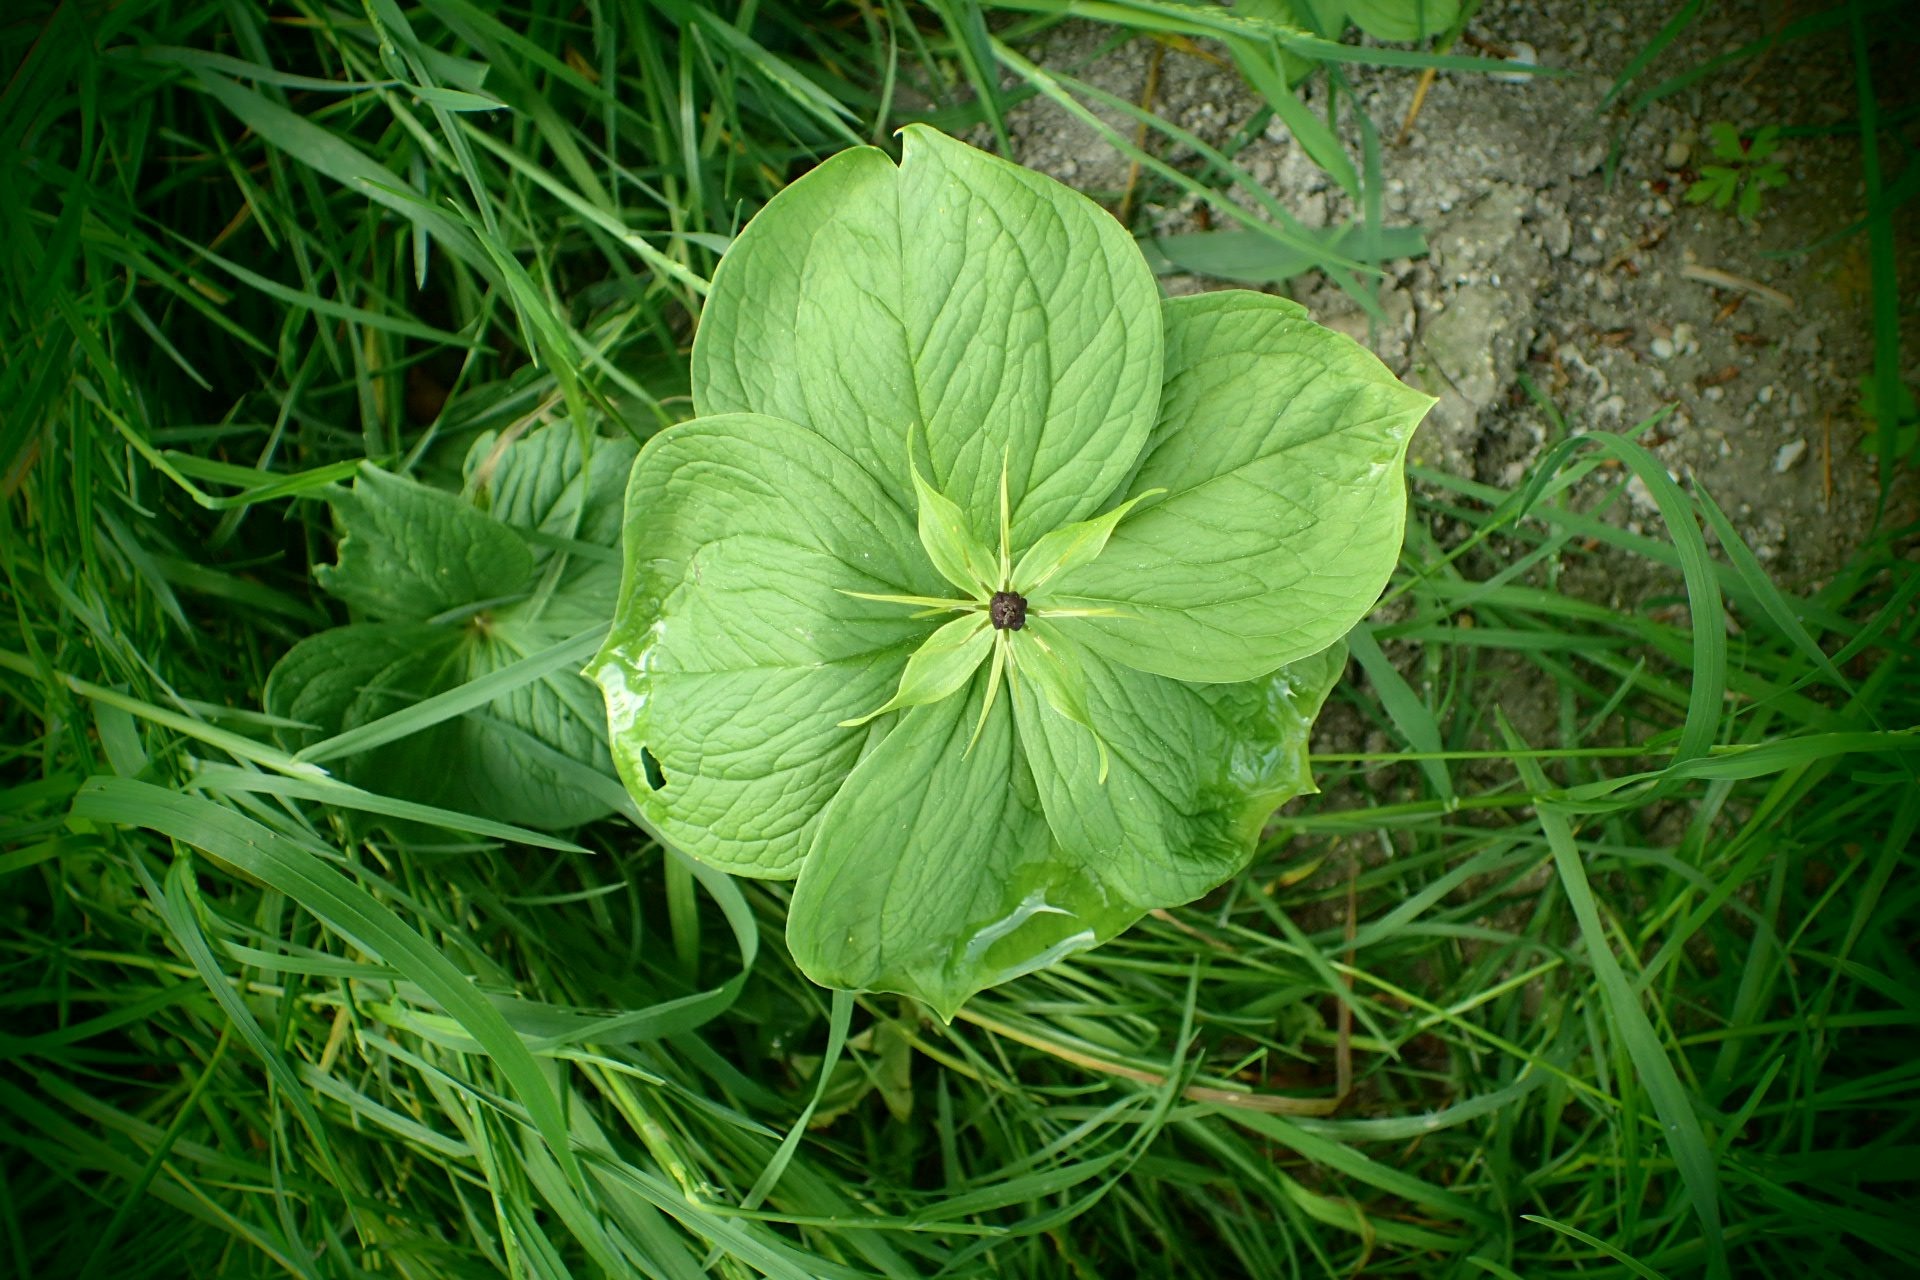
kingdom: Plantae
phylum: Tracheophyta
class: Liliopsida
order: Liliales
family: Melanthiaceae
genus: Paris
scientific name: Paris quadrifolia
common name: Firblad
